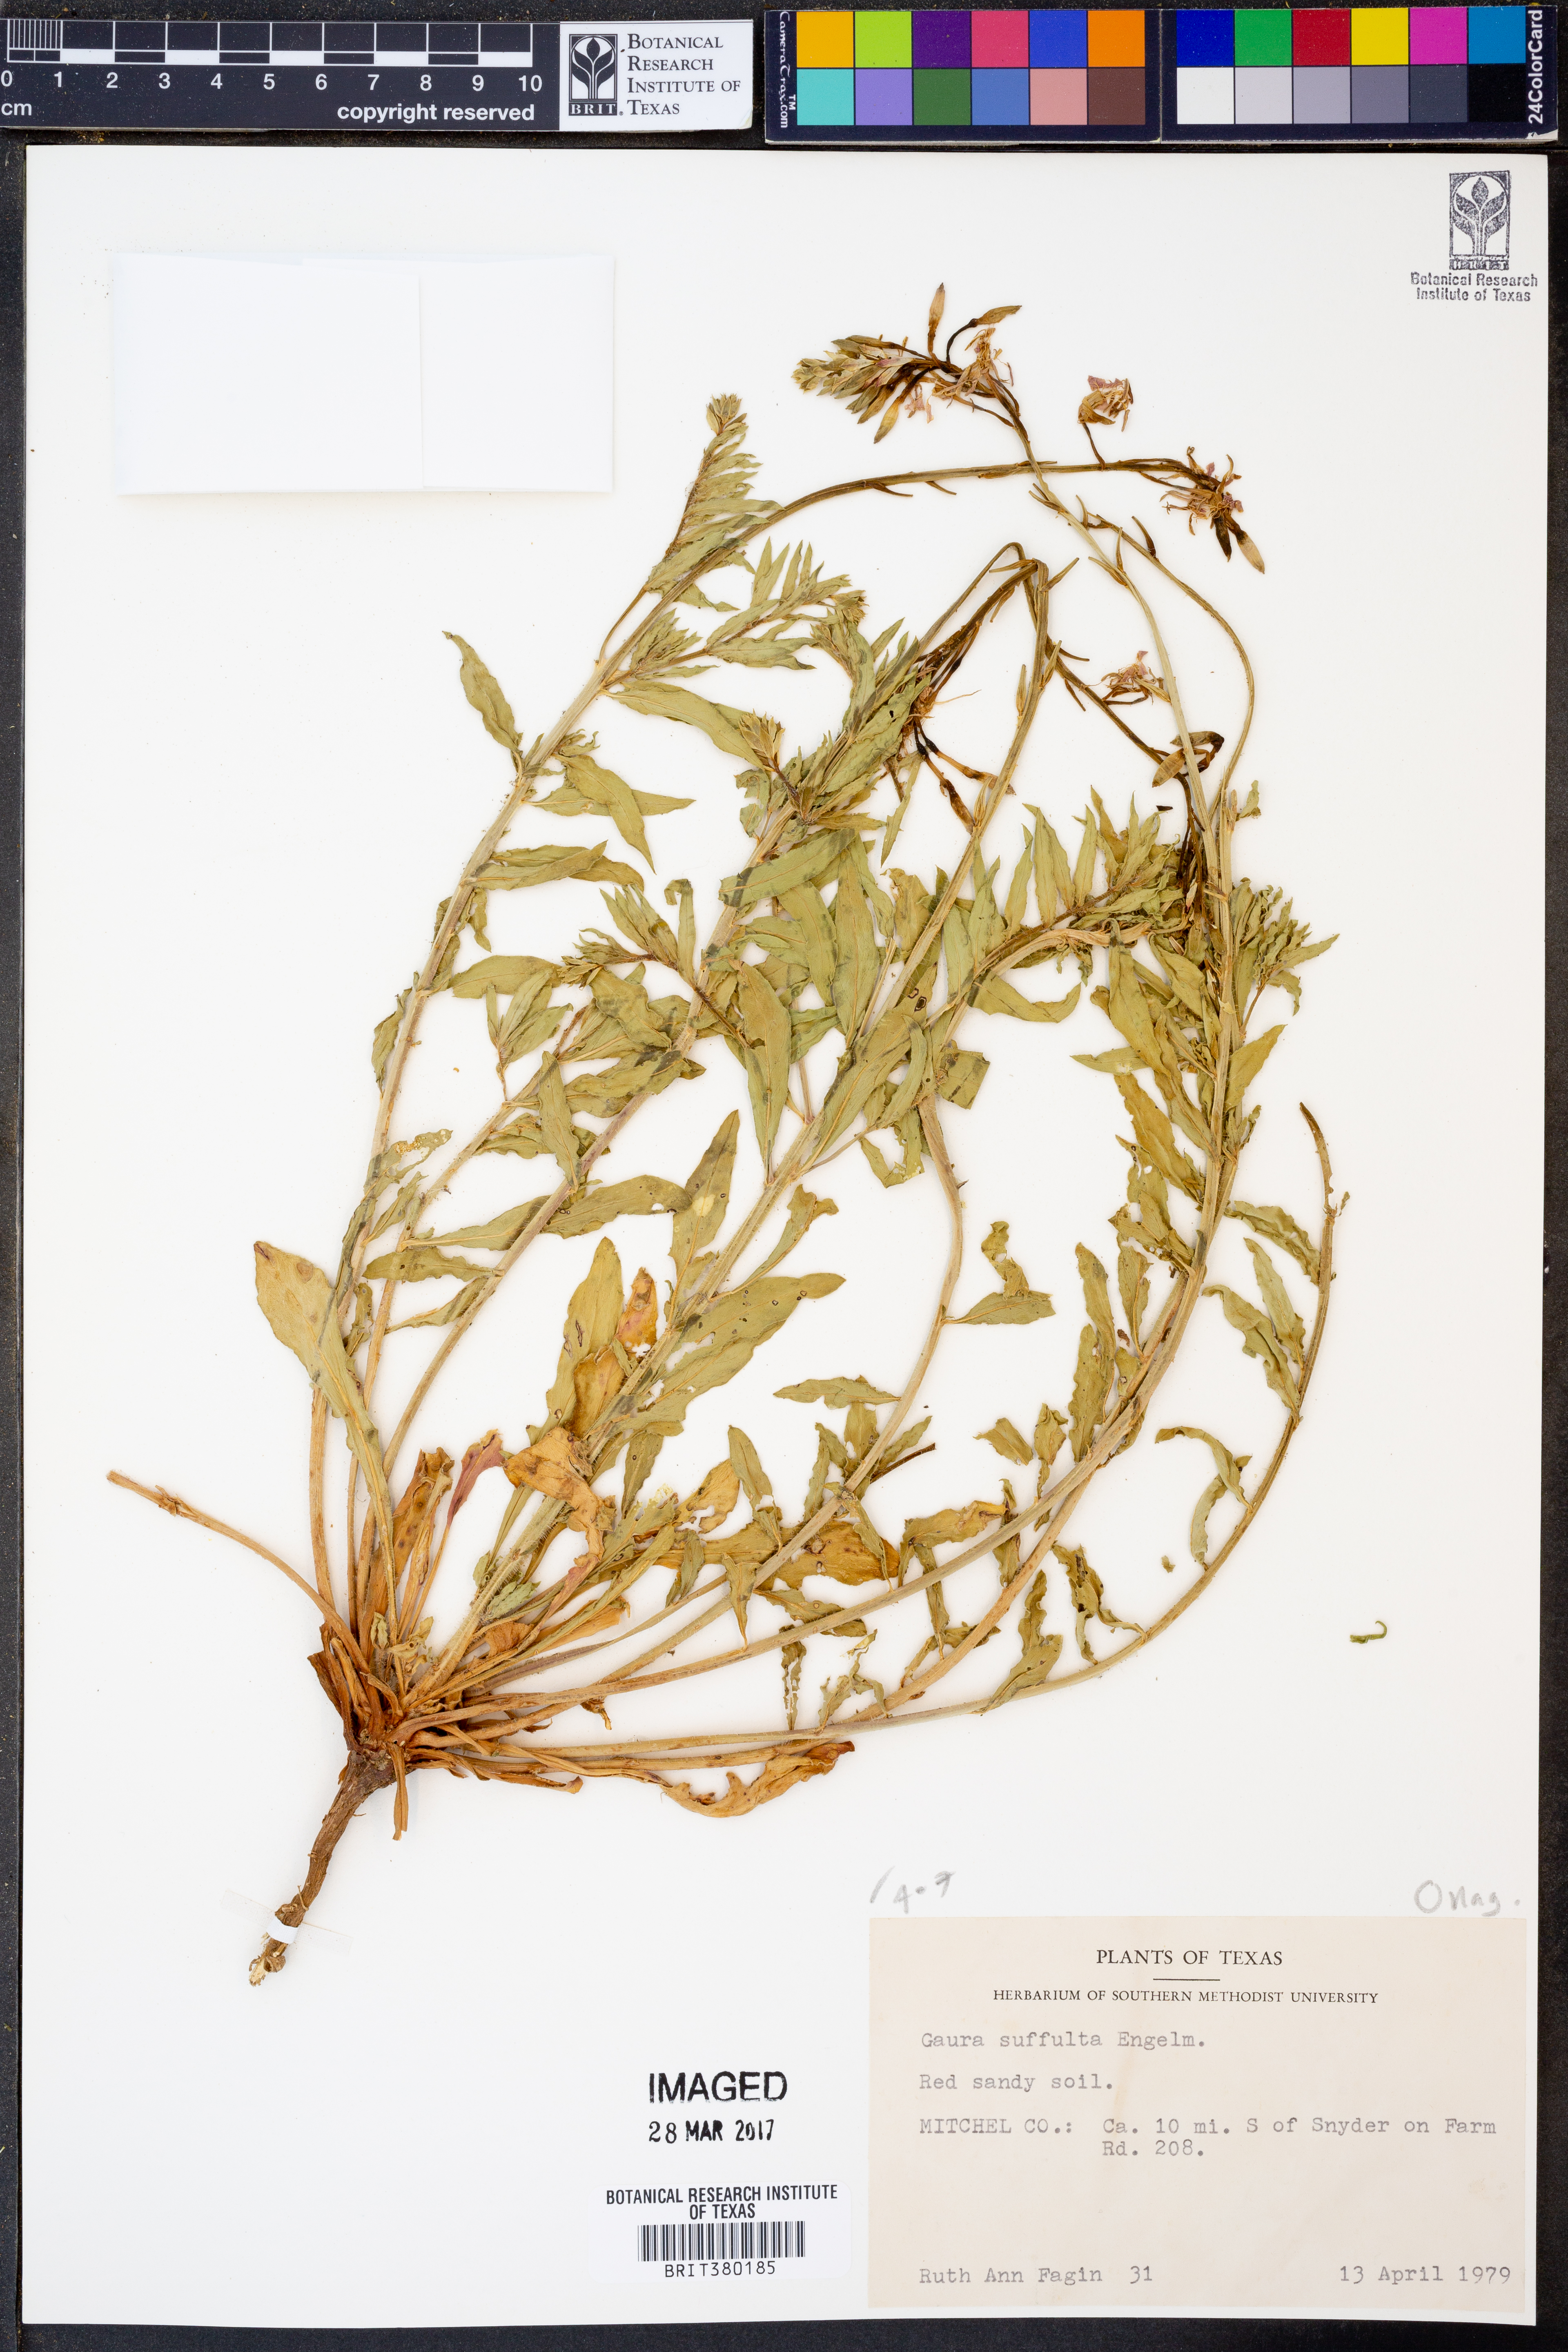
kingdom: Plantae
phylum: Tracheophyta
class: Magnoliopsida
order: Myrtales
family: Onagraceae
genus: Oenothera
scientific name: Oenothera Gaura suffulta
